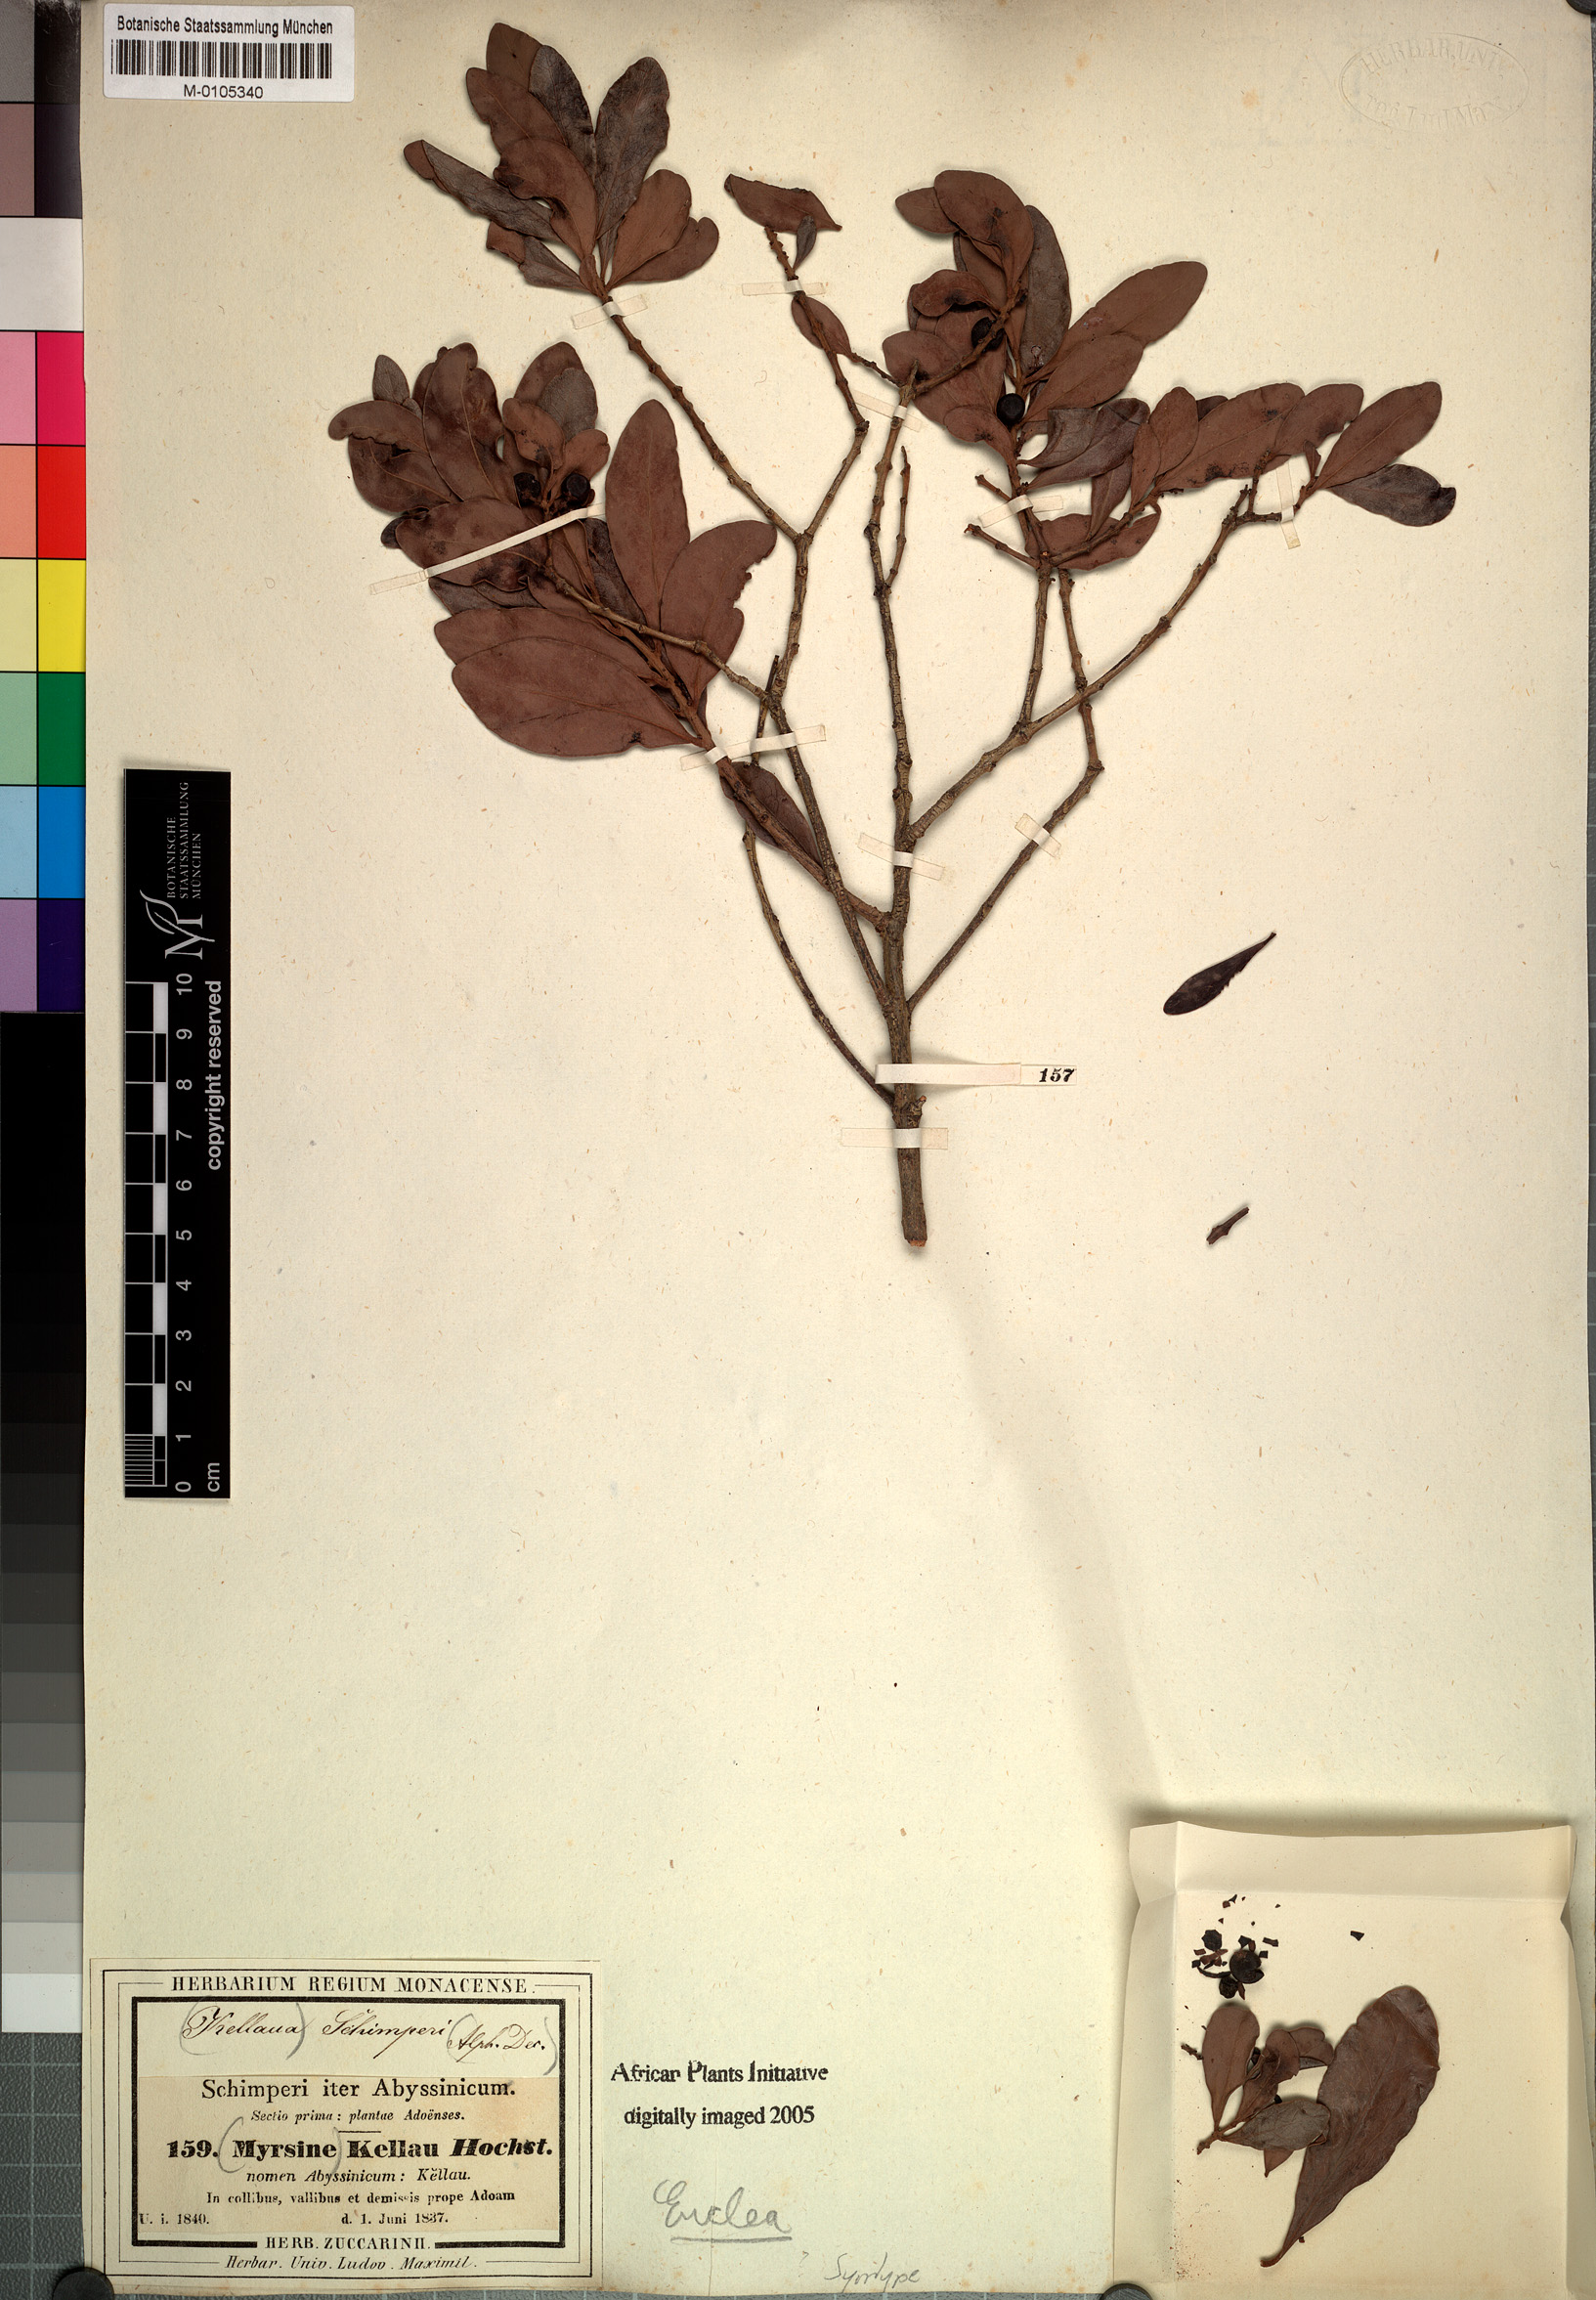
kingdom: Plantae
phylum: Tracheophyta
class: Magnoliopsida
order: Ericales
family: Ebenaceae
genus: Euclea
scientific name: Euclea racemosa
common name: Dune guarri
